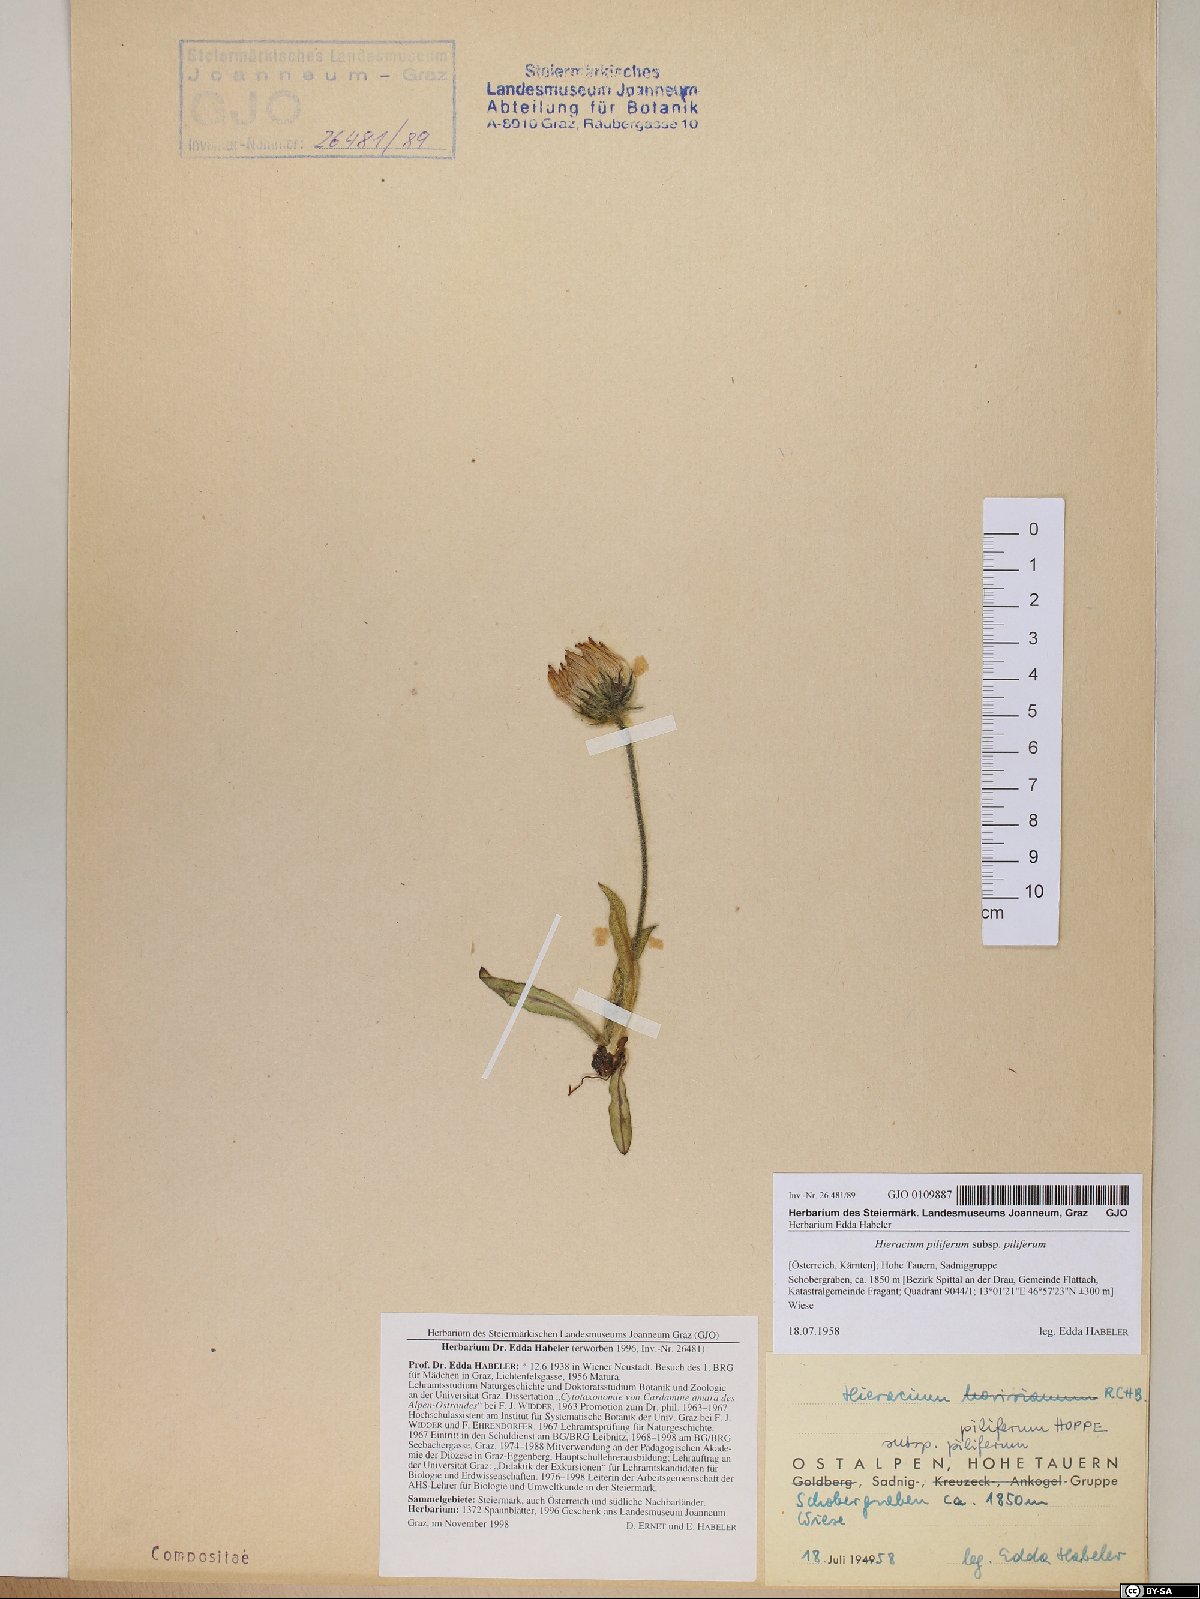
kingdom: Plantae
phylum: Tracheophyta
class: Magnoliopsida
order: Asterales
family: Asteraceae
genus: Hieracium
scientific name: Hieracium piliferum
